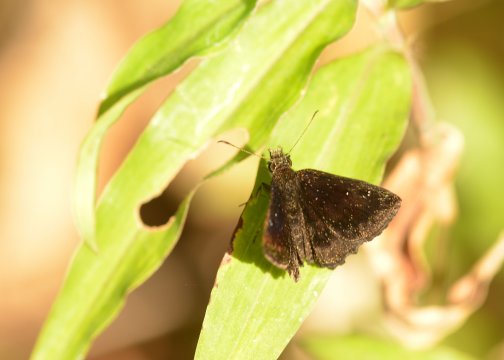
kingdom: Animalia
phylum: Arthropoda
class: Insecta
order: Lepidoptera
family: Hesperiidae
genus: Staphylus
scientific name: Staphylus
